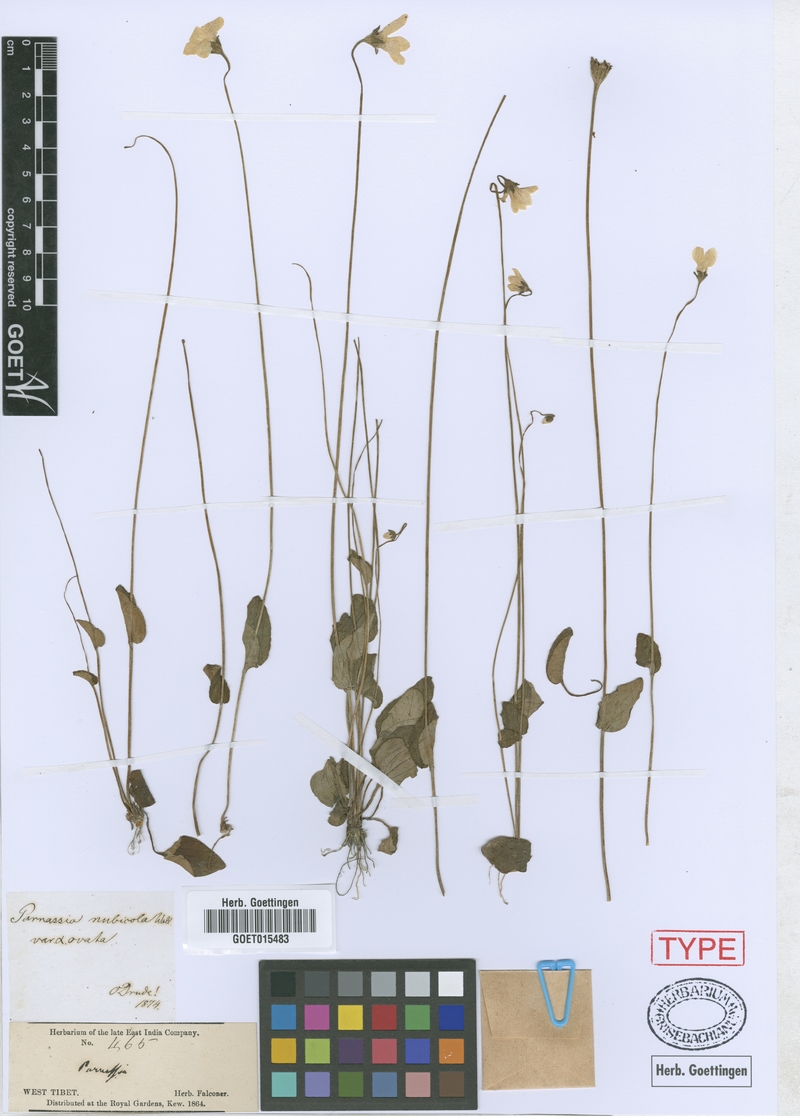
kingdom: Plantae
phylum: Tracheophyta
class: Magnoliopsida
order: Celastrales
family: Parnassiaceae
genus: Parnassia
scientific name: Parnassia nubicola
